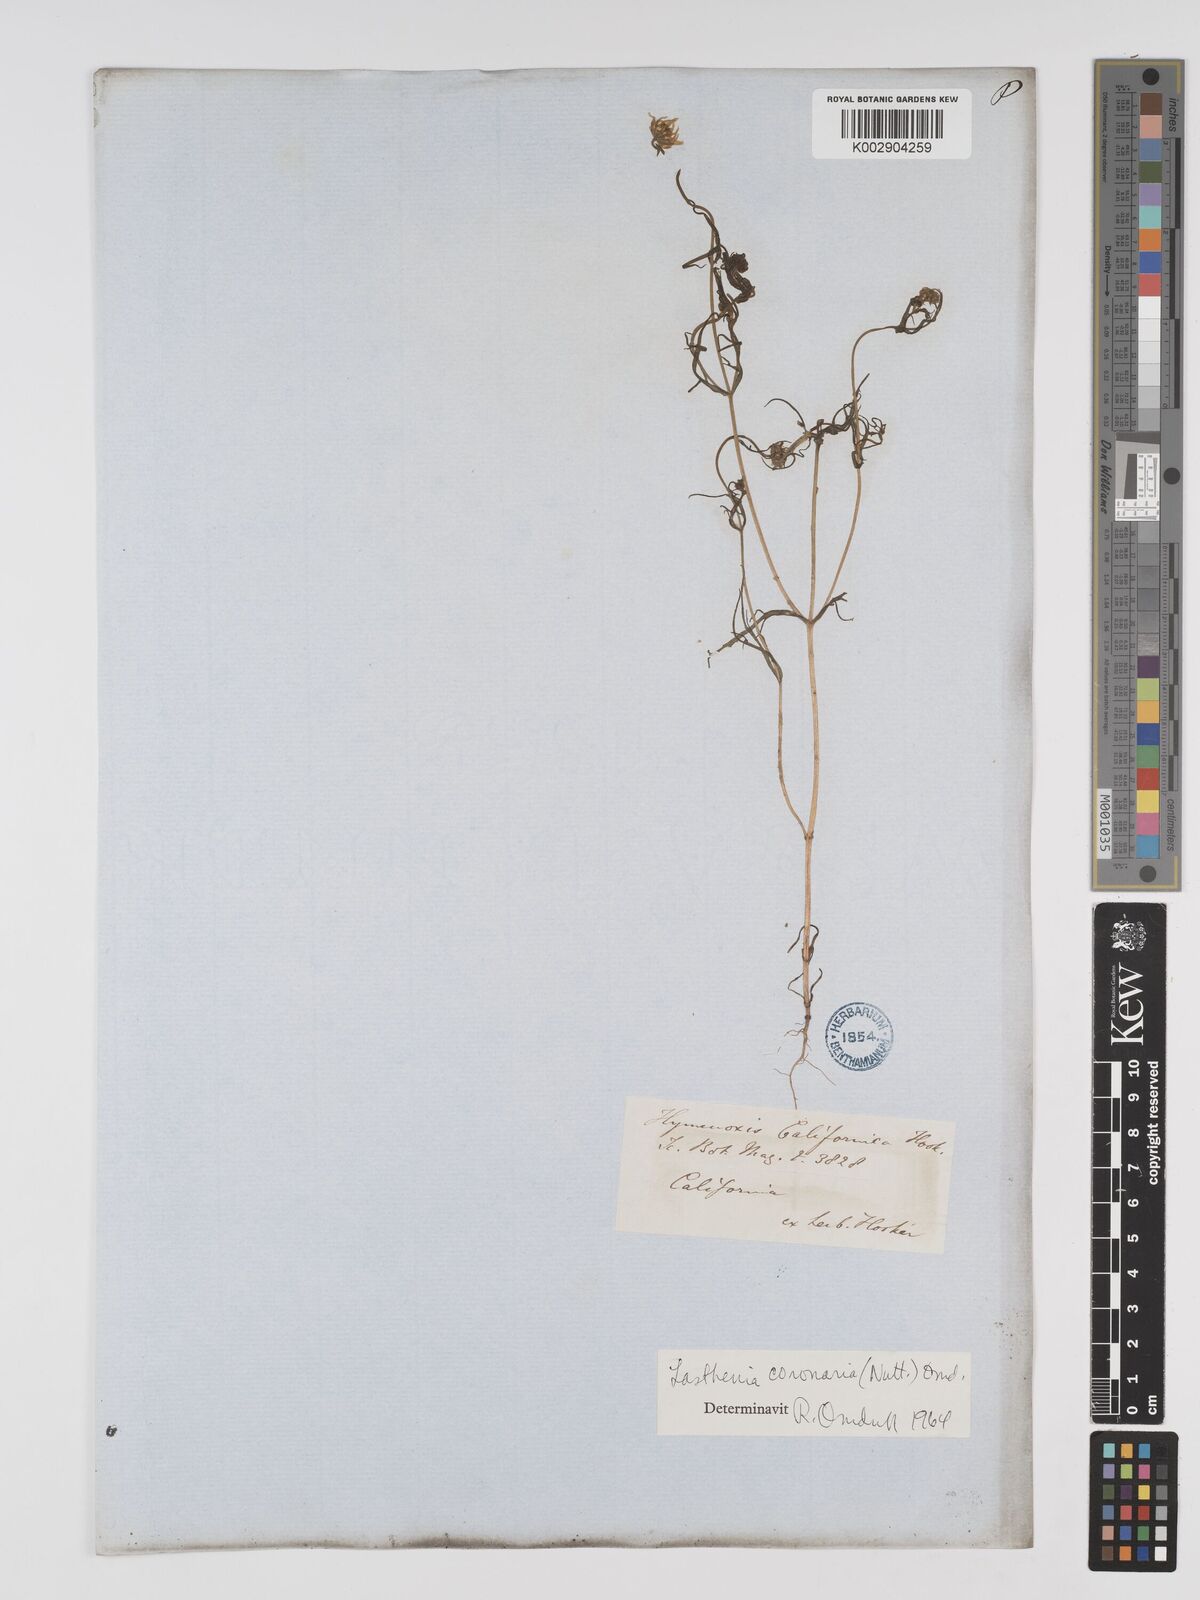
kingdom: Plantae
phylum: Tracheophyta
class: Magnoliopsida
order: Asterales
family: Asteraceae
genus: Lasthenia
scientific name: Lasthenia coronaria
